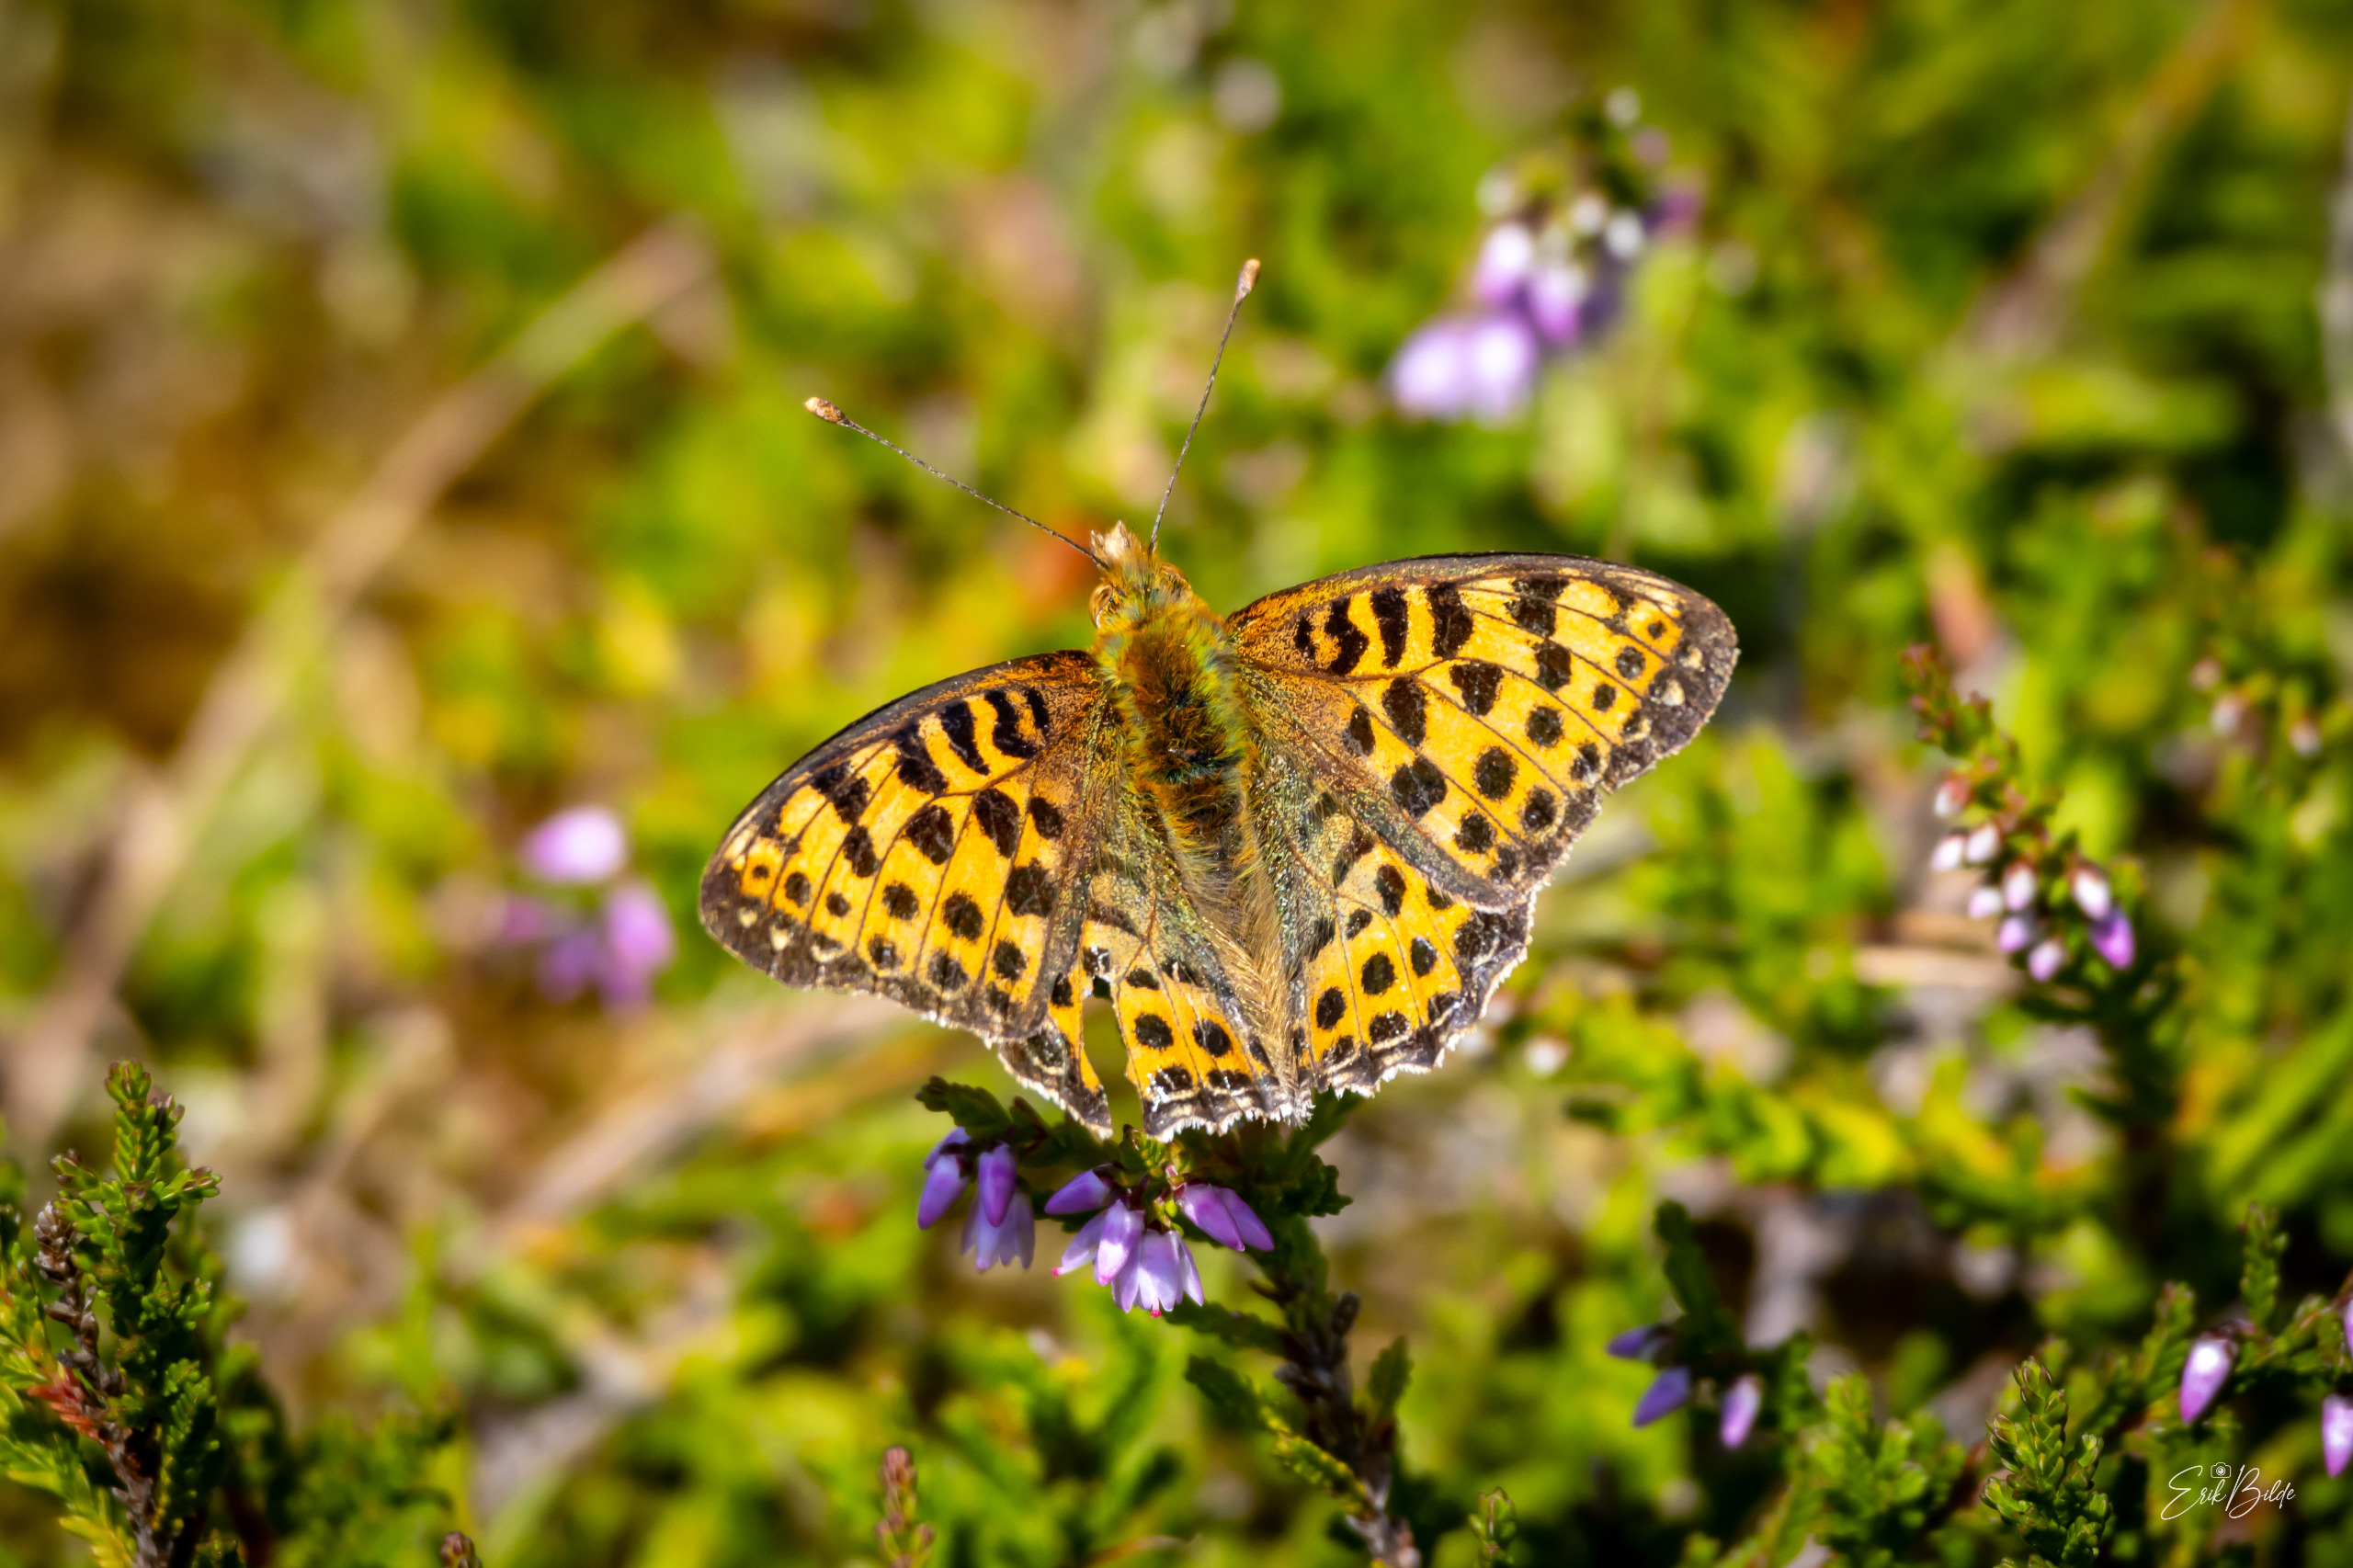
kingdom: Animalia
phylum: Arthropoda
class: Insecta
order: Lepidoptera
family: Nymphalidae
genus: Issoria
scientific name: Issoria lathonia
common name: Storplettet perlemorsommerfugl
